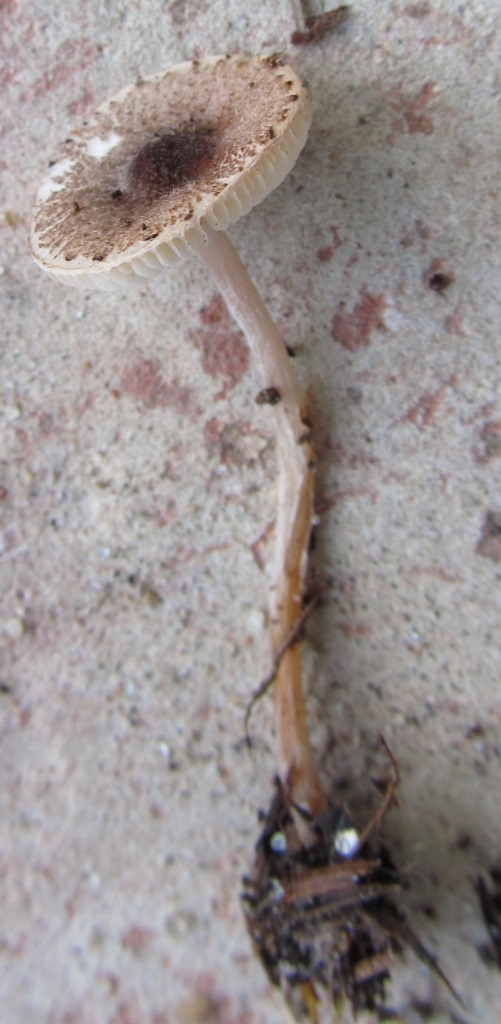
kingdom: Fungi
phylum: Basidiomycota
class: Agaricomycetes
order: Agaricales
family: Agaricaceae
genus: Lepiota
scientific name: Lepiota echinella
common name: finskællet parasolhat
